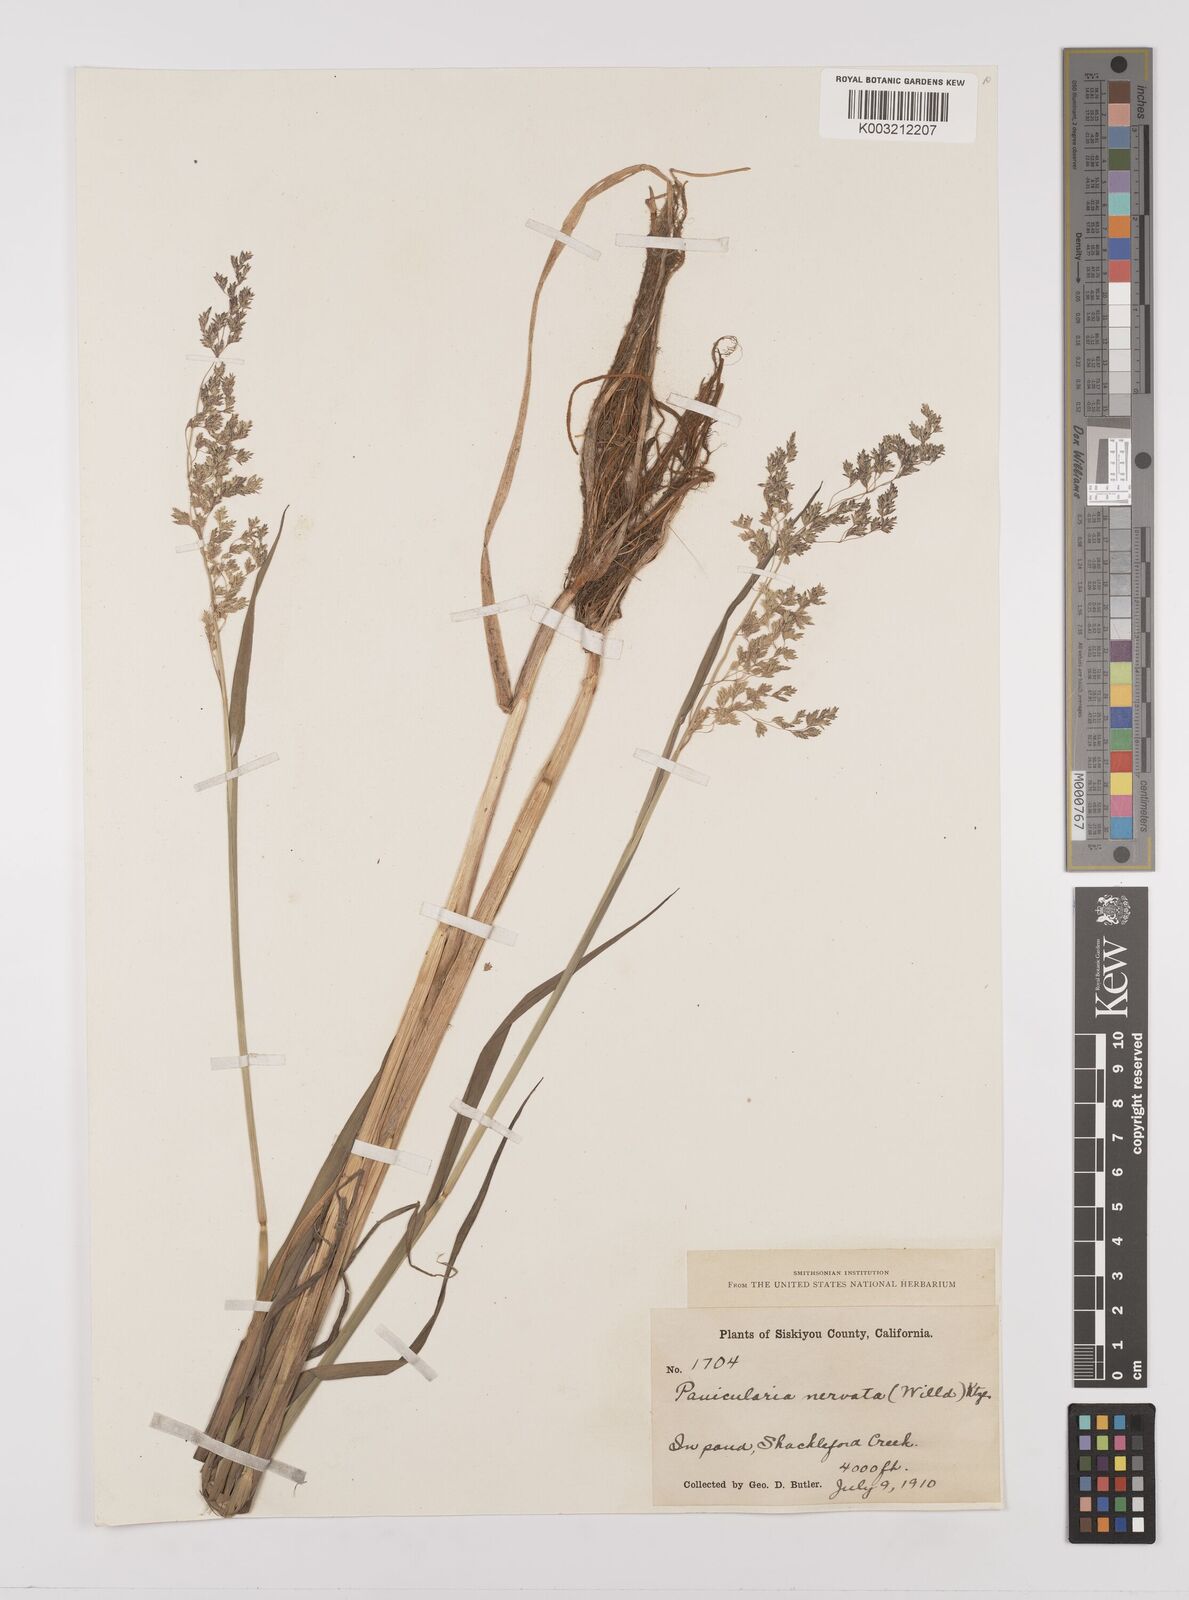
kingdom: Plantae
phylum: Tracheophyta
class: Liliopsida
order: Poales
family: Poaceae
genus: Glyceria
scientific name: Glyceria
